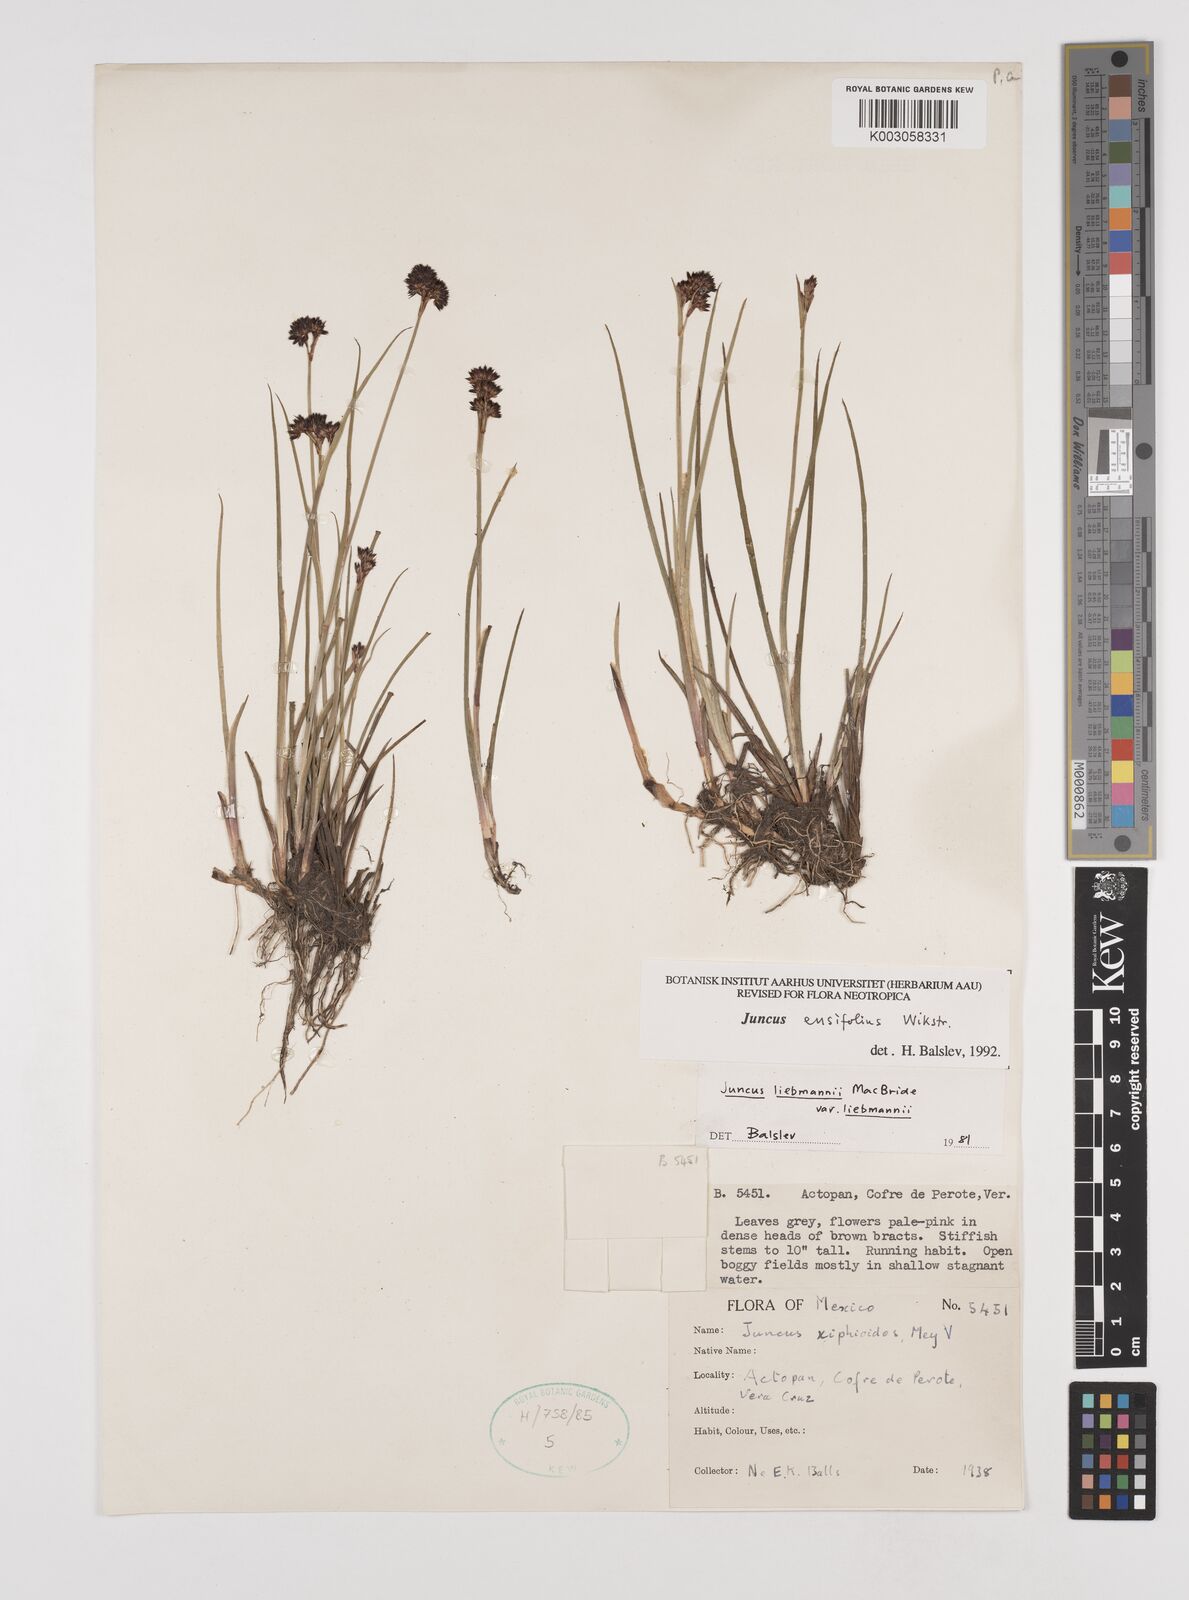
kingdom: Plantae
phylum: Tracheophyta
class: Liliopsida
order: Poales
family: Juncaceae
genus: Juncus
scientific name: Juncus ensifolius
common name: Sword-leaved rush
